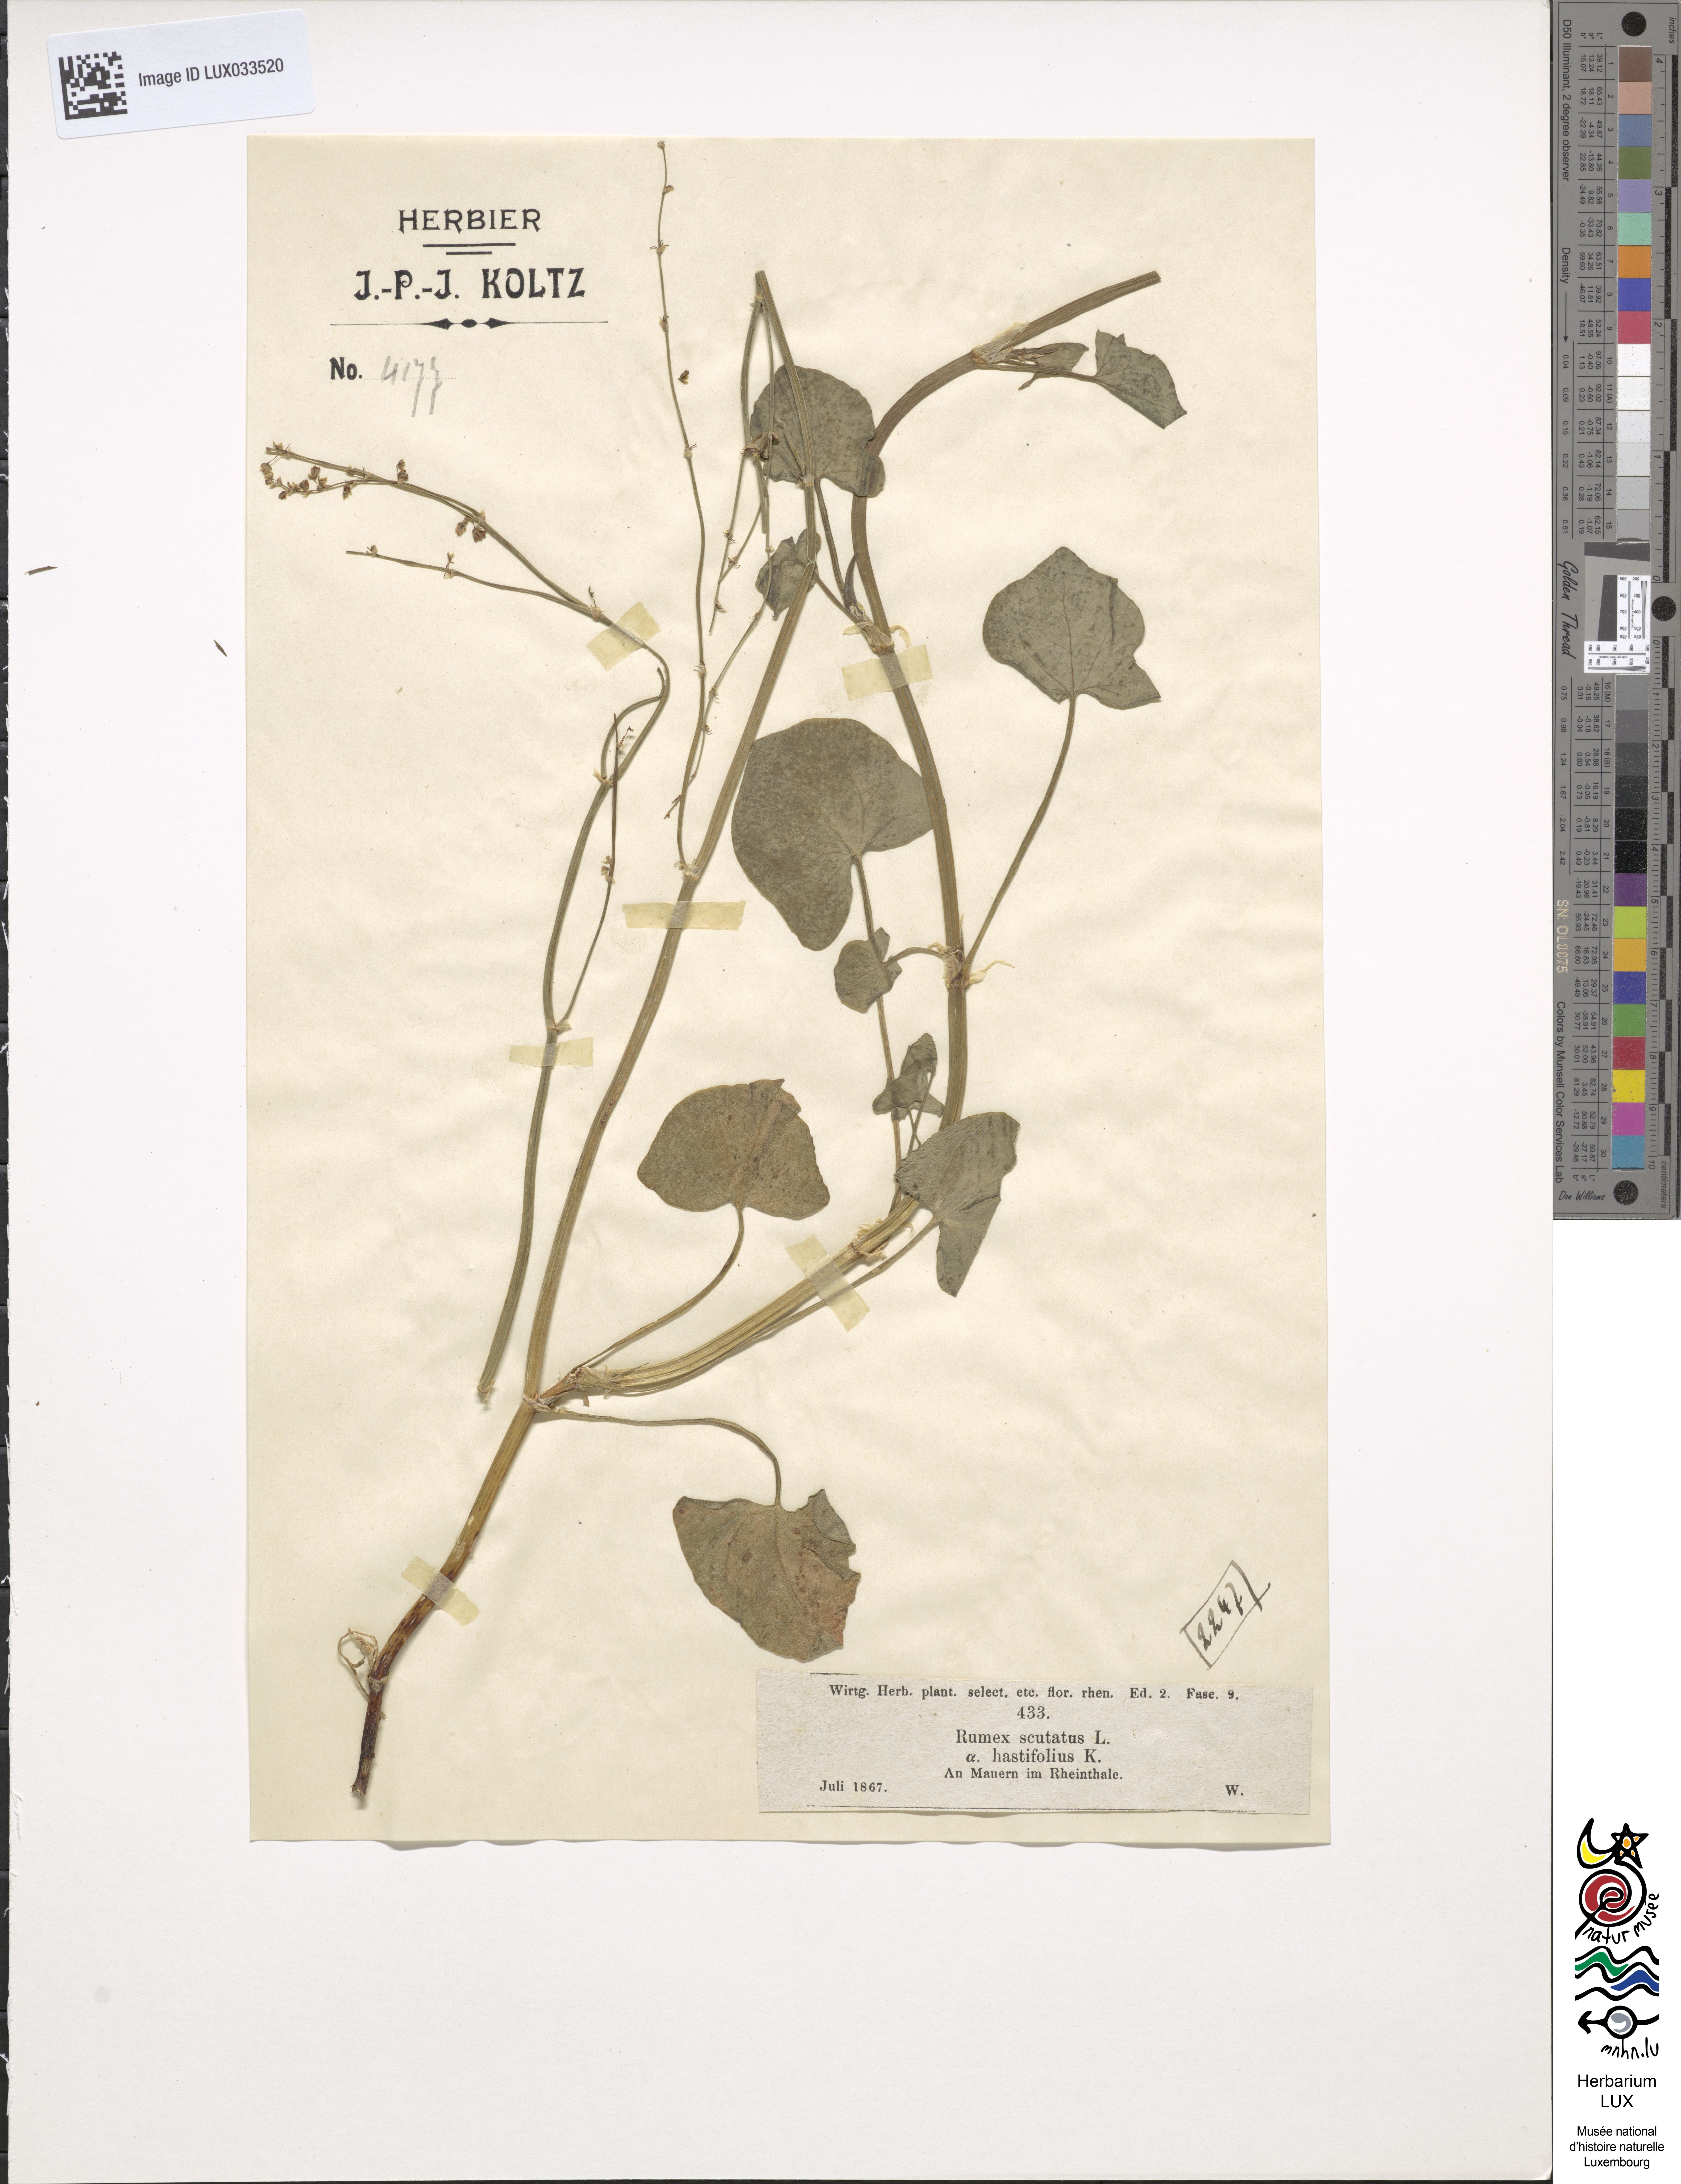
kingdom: Plantae
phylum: Tracheophyta
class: Magnoliopsida
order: Caryophyllales
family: Polygonaceae
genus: Rumex
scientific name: Rumex scutatus
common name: French sorrel
